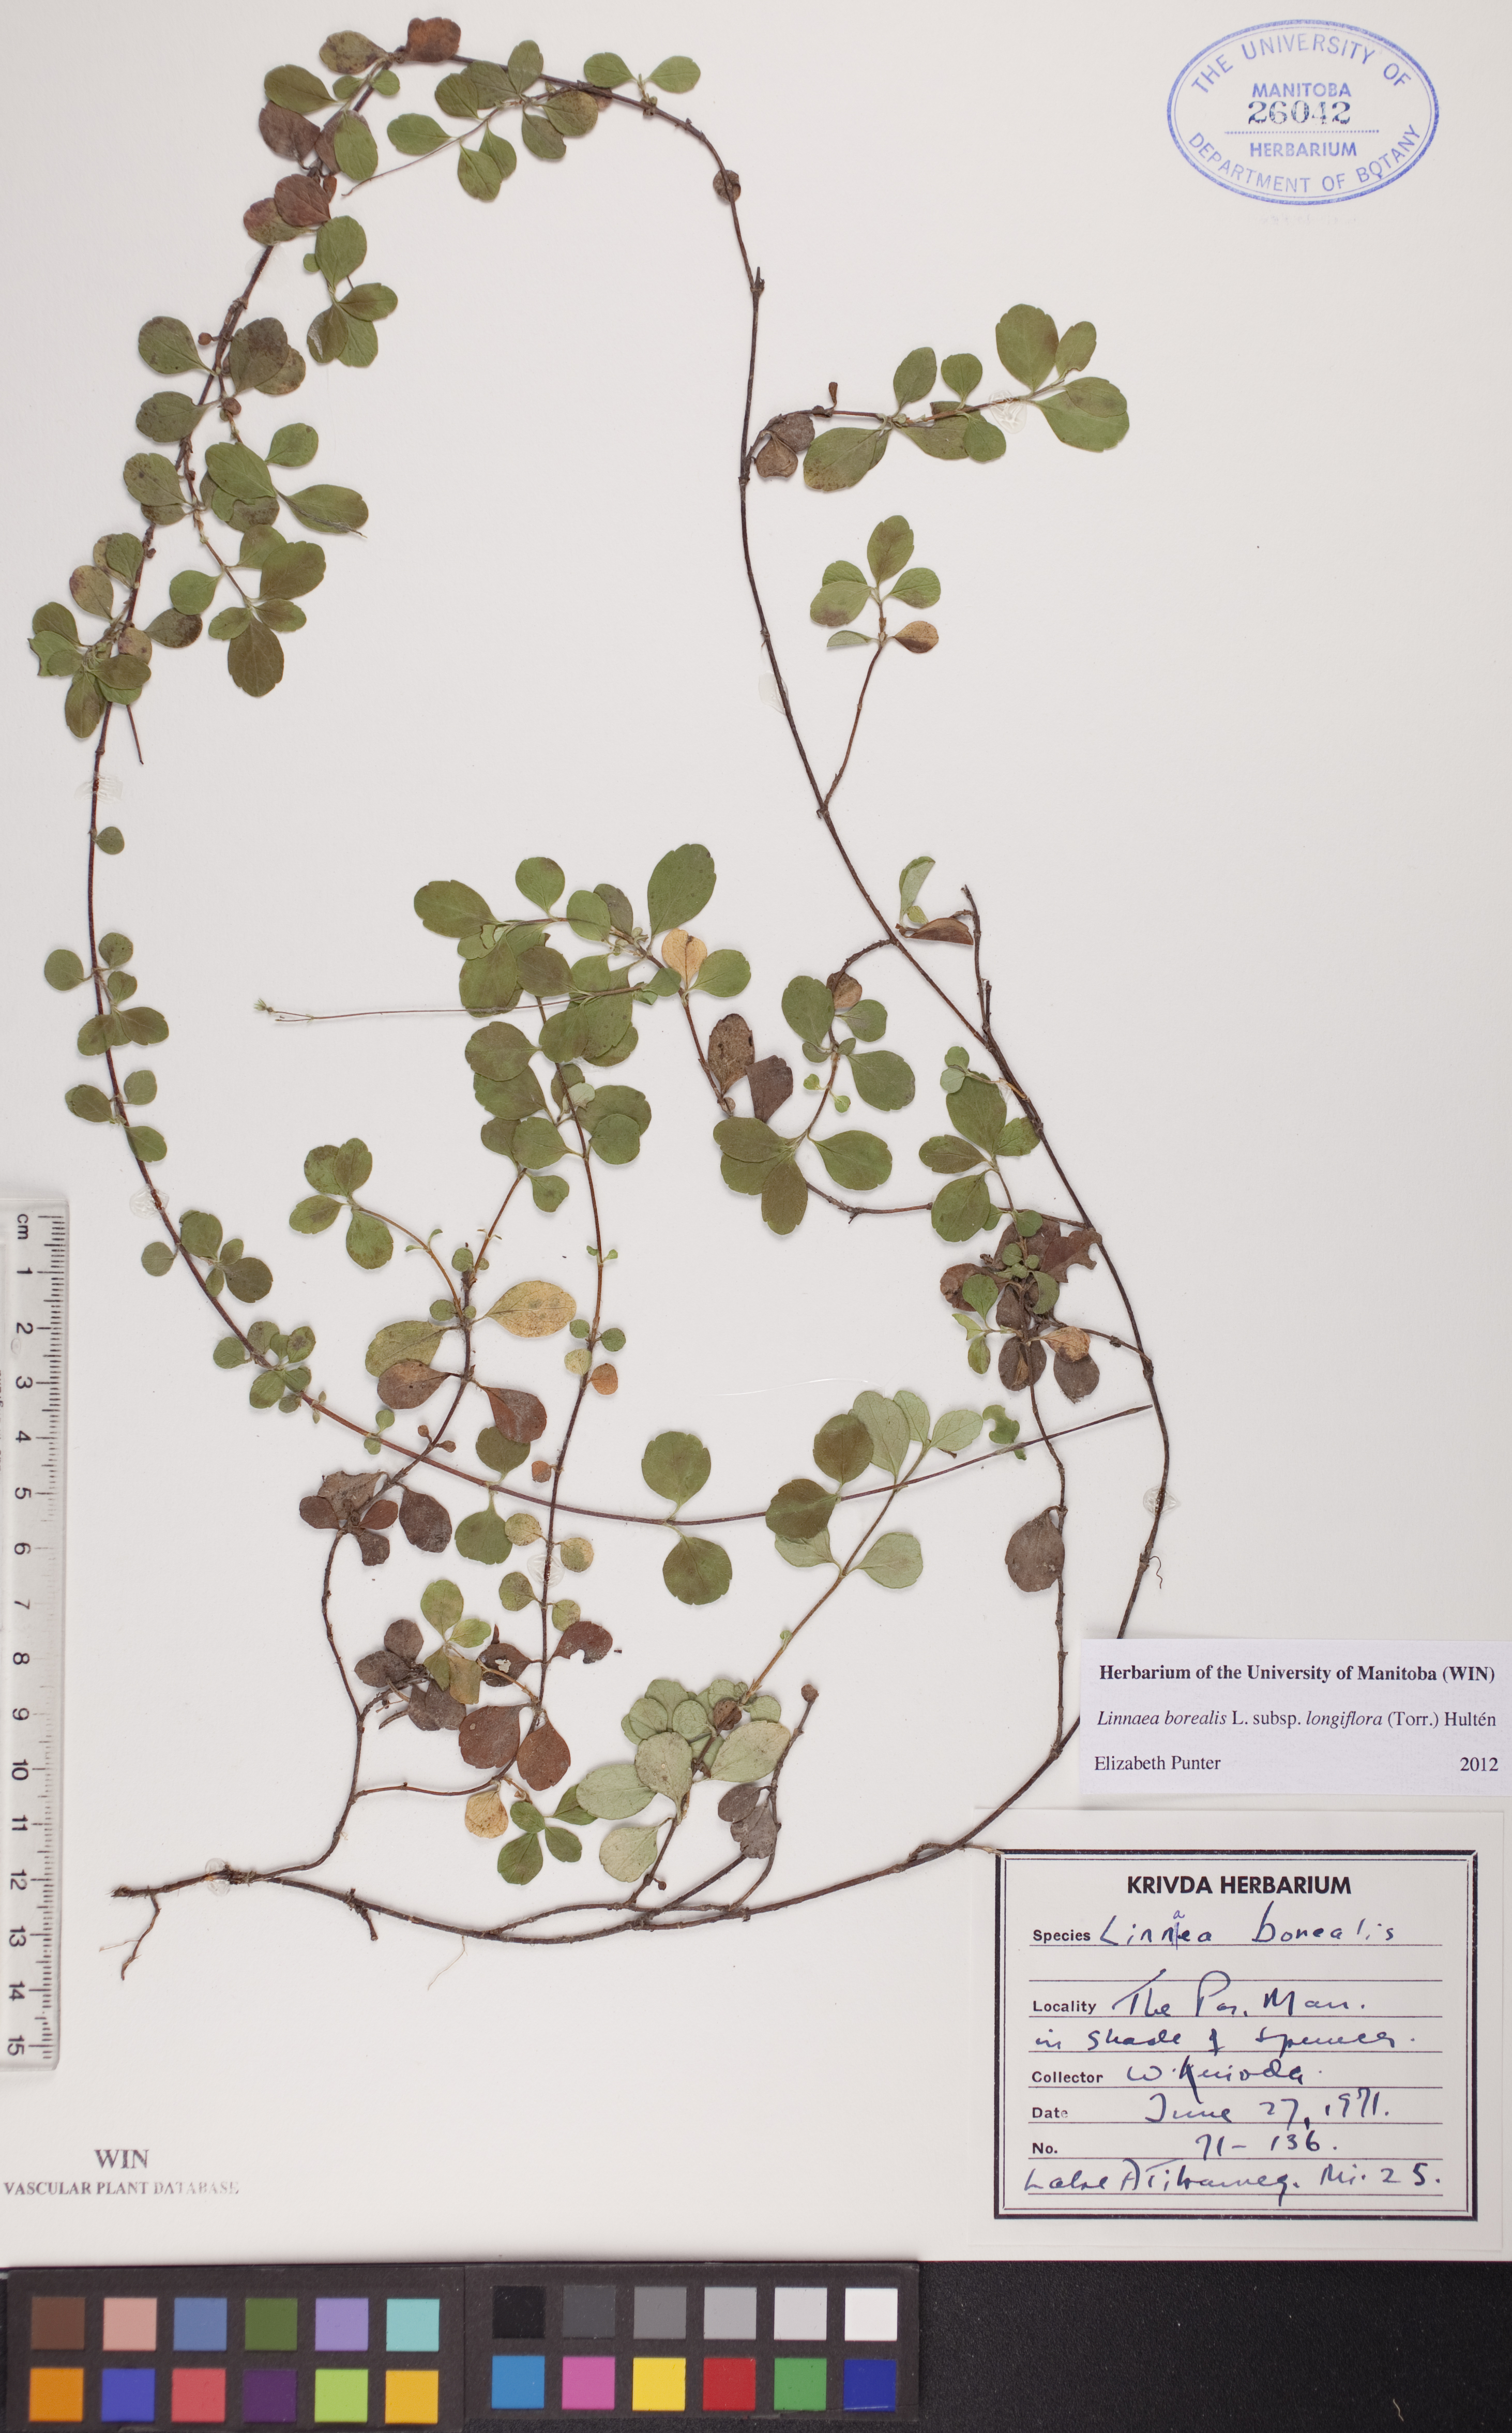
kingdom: Plantae
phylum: Tracheophyta
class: Magnoliopsida
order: Dipsacales
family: Caprifoliaceae
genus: Linnaea
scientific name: Linnaea borealis
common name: Twinflower
